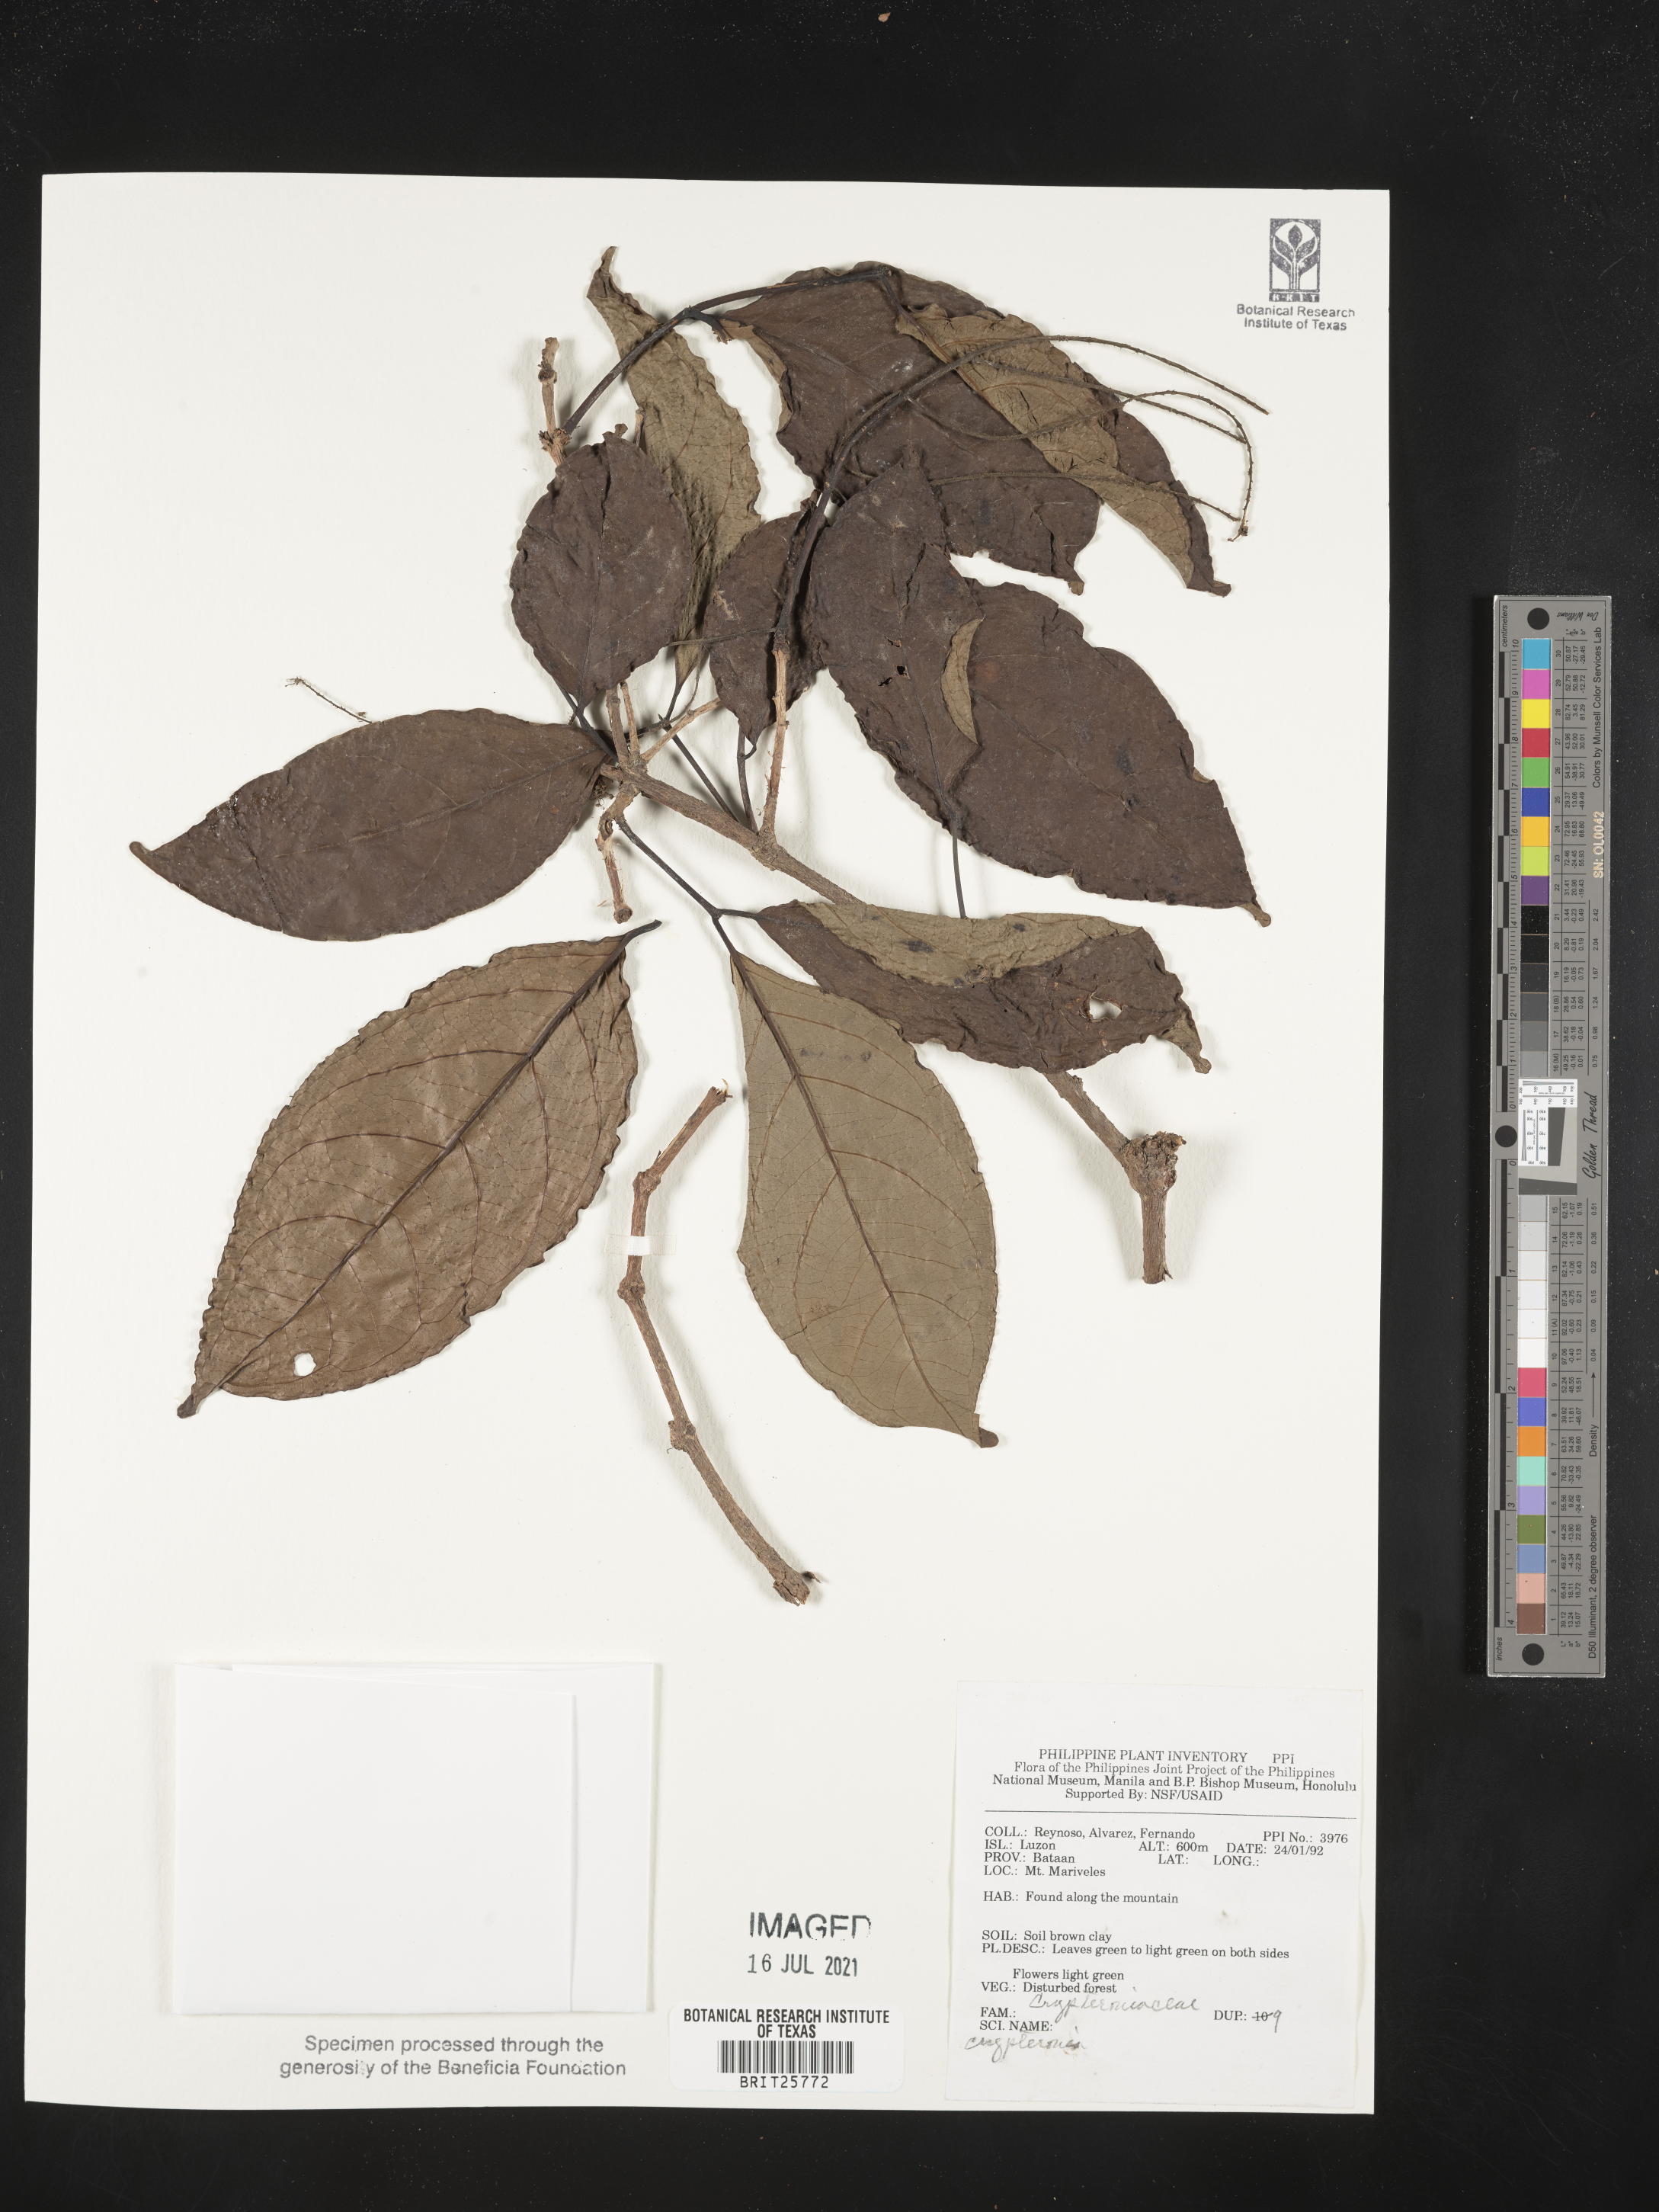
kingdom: Plantae
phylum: Tracheophyta
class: Magnoliopsida
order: Myrtales
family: Crypteroniaceae
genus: Crypteronia
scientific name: Crypteronia
